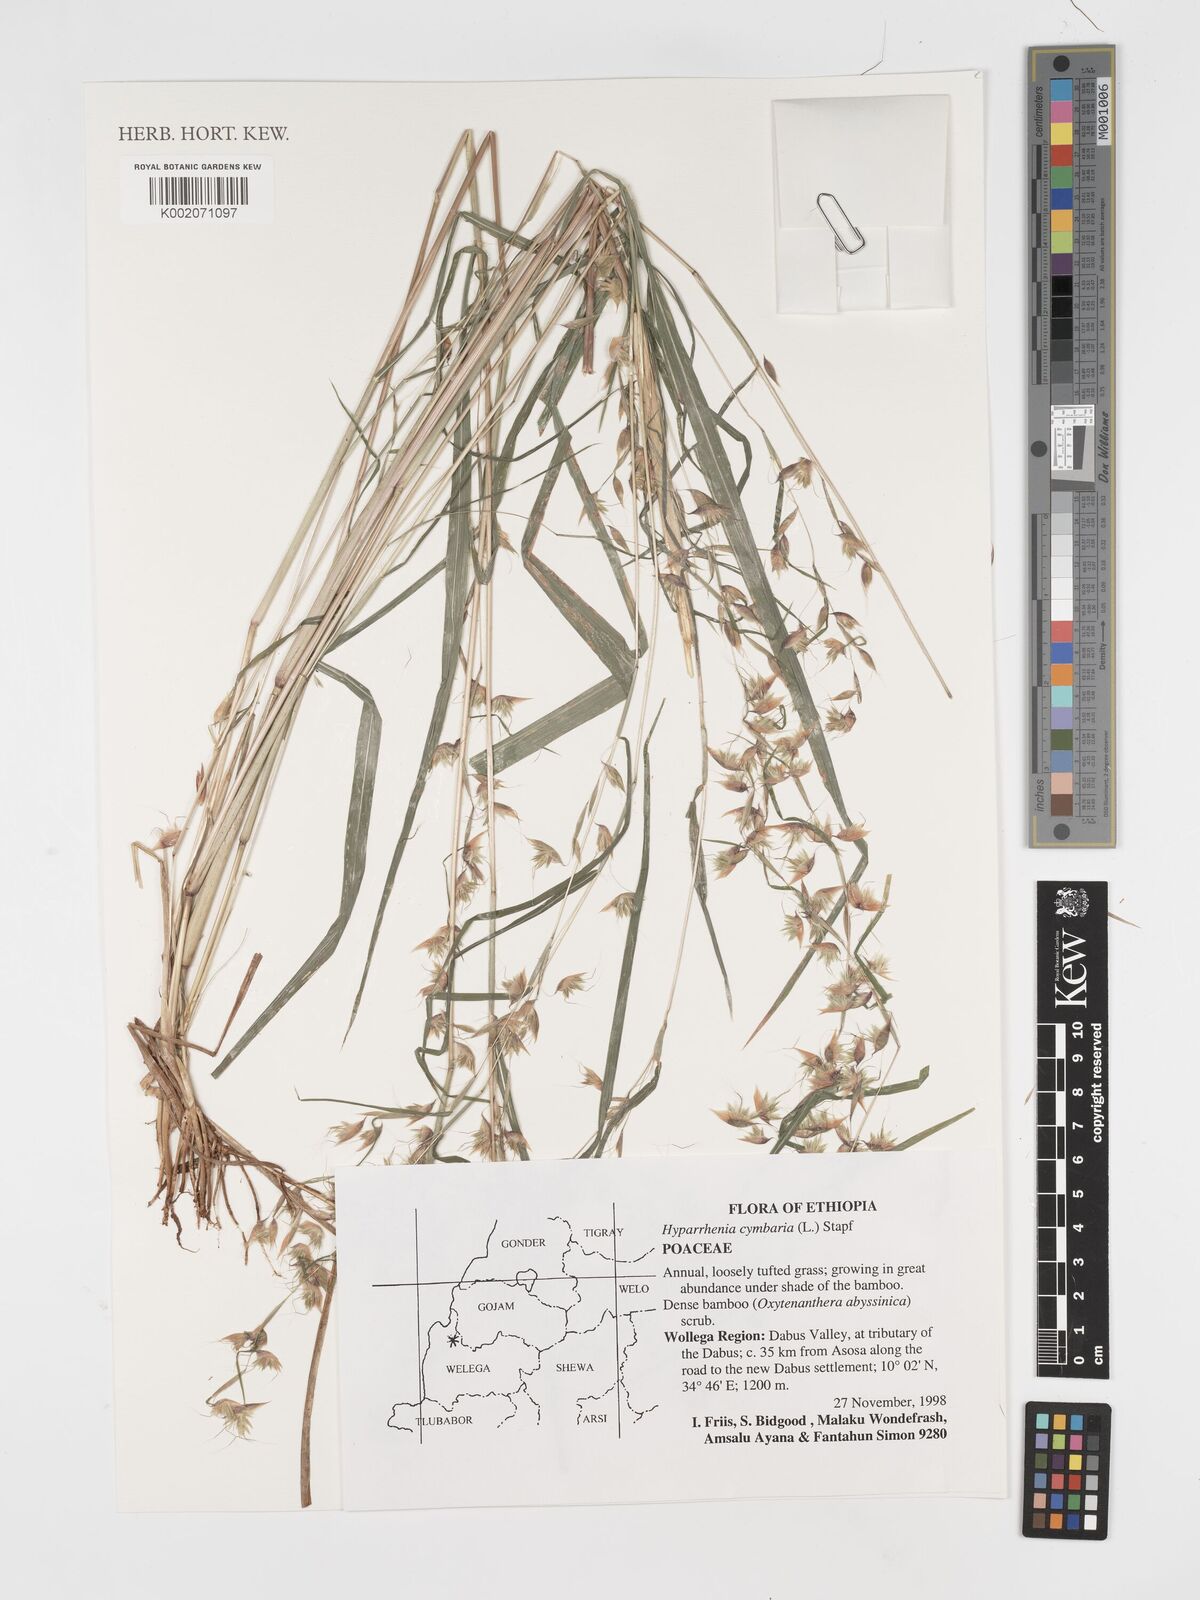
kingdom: Plantae
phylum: Tracheophyta
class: Liliopsida
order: Poales
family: Poaceae
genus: Hyparrhenia
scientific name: Hyparrhenia cymbaria
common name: Boat thatching grass
